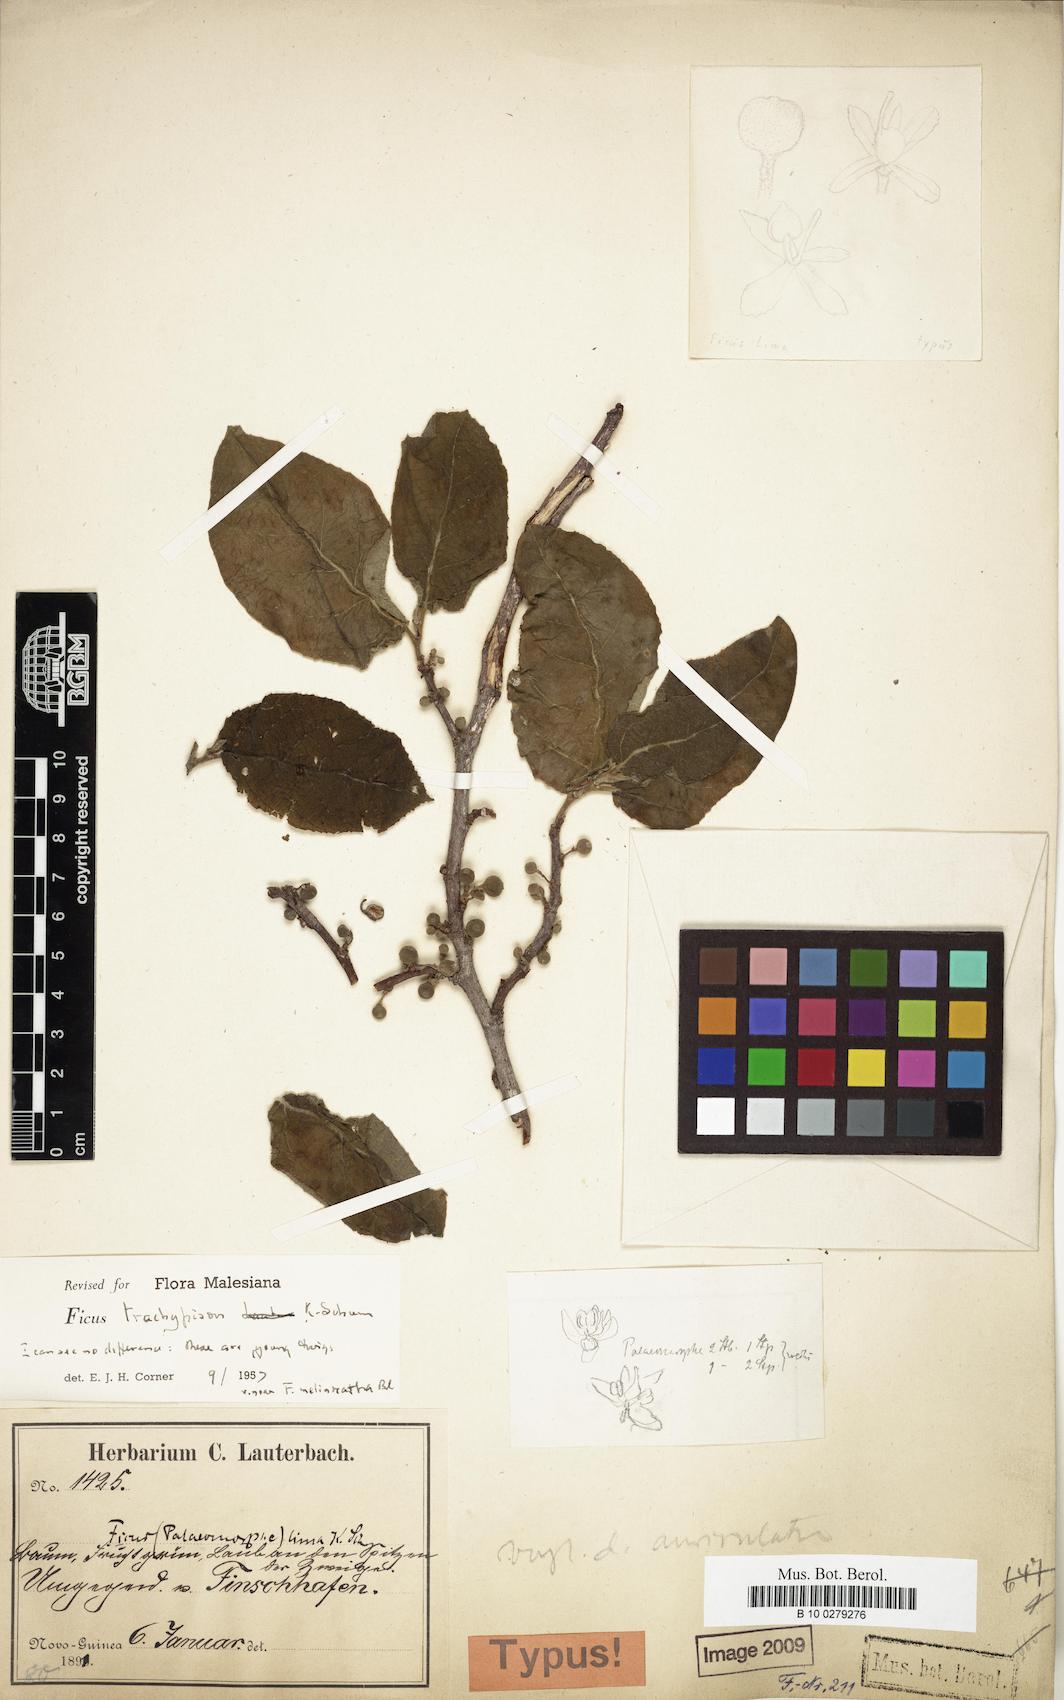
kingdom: Plantae
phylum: Tracheophyta
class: Magnoliopsida
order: Rosales
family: Moraceae
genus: Ficus
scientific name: Ficus trachypison
